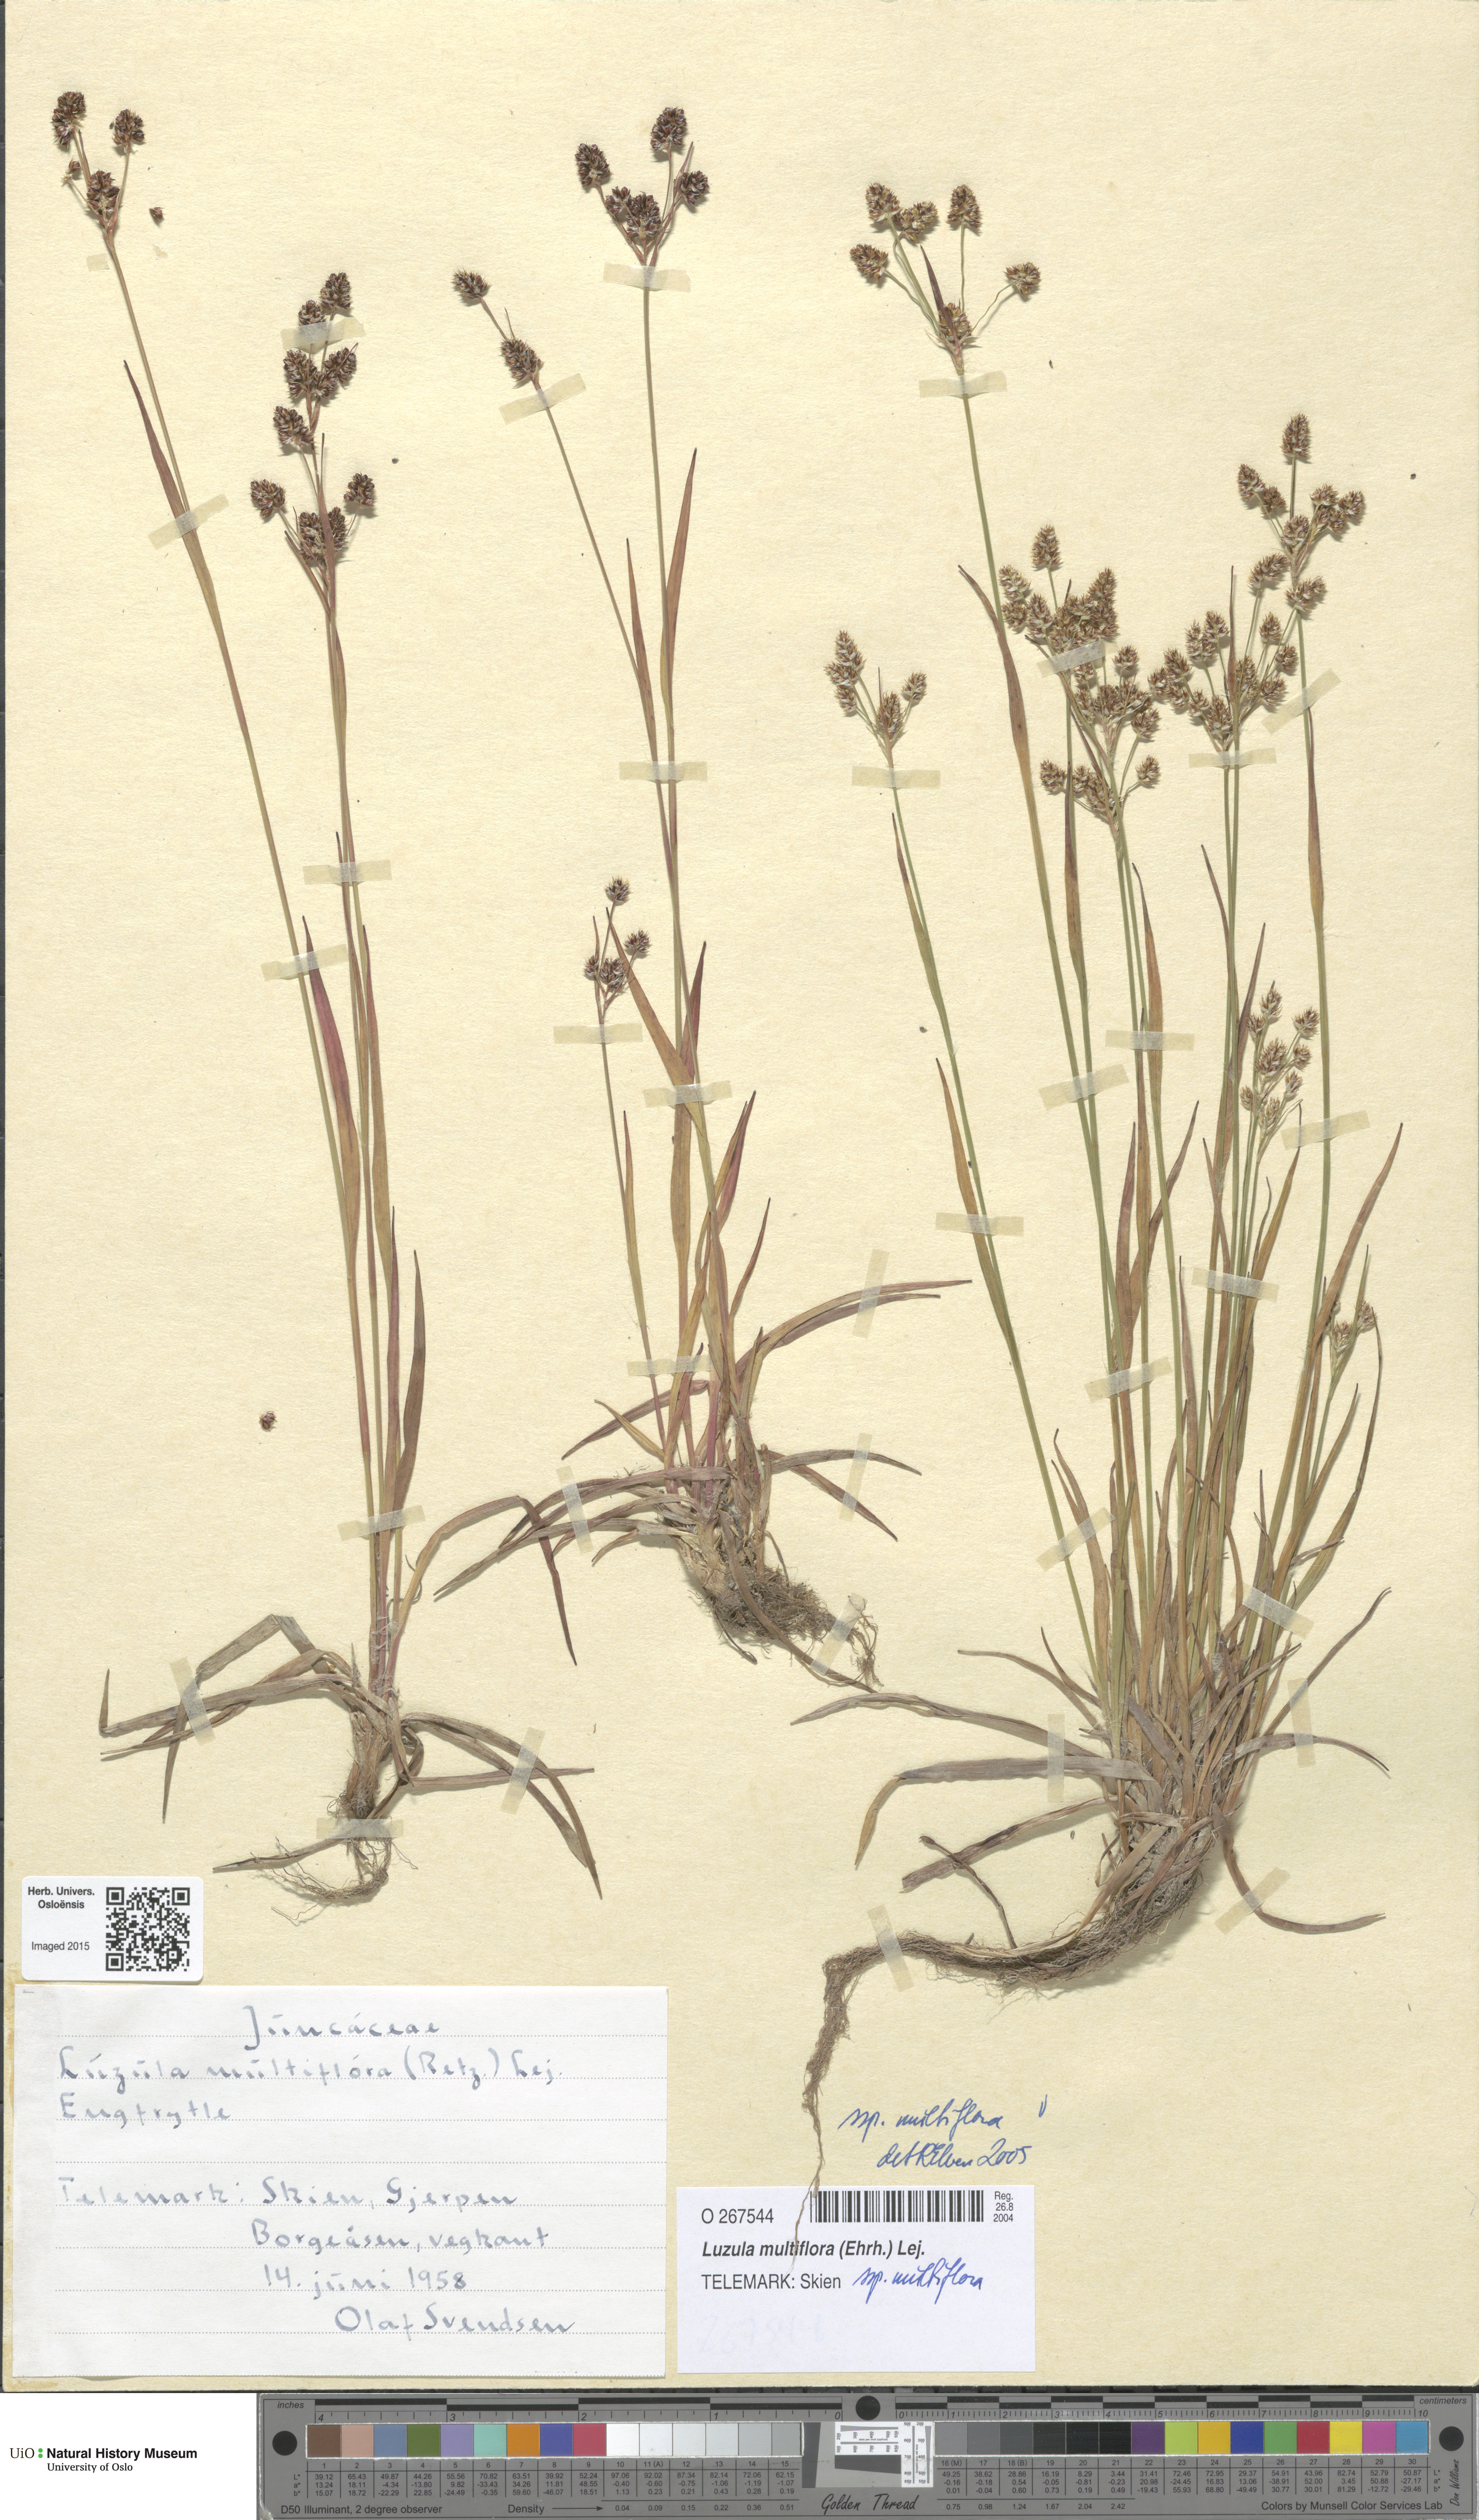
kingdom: Plantae
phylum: Tracheophyta
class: Liliopsida
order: Poales
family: Juncaceae
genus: Luzula
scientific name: Luzula multiflora
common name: Heath wood-rush
